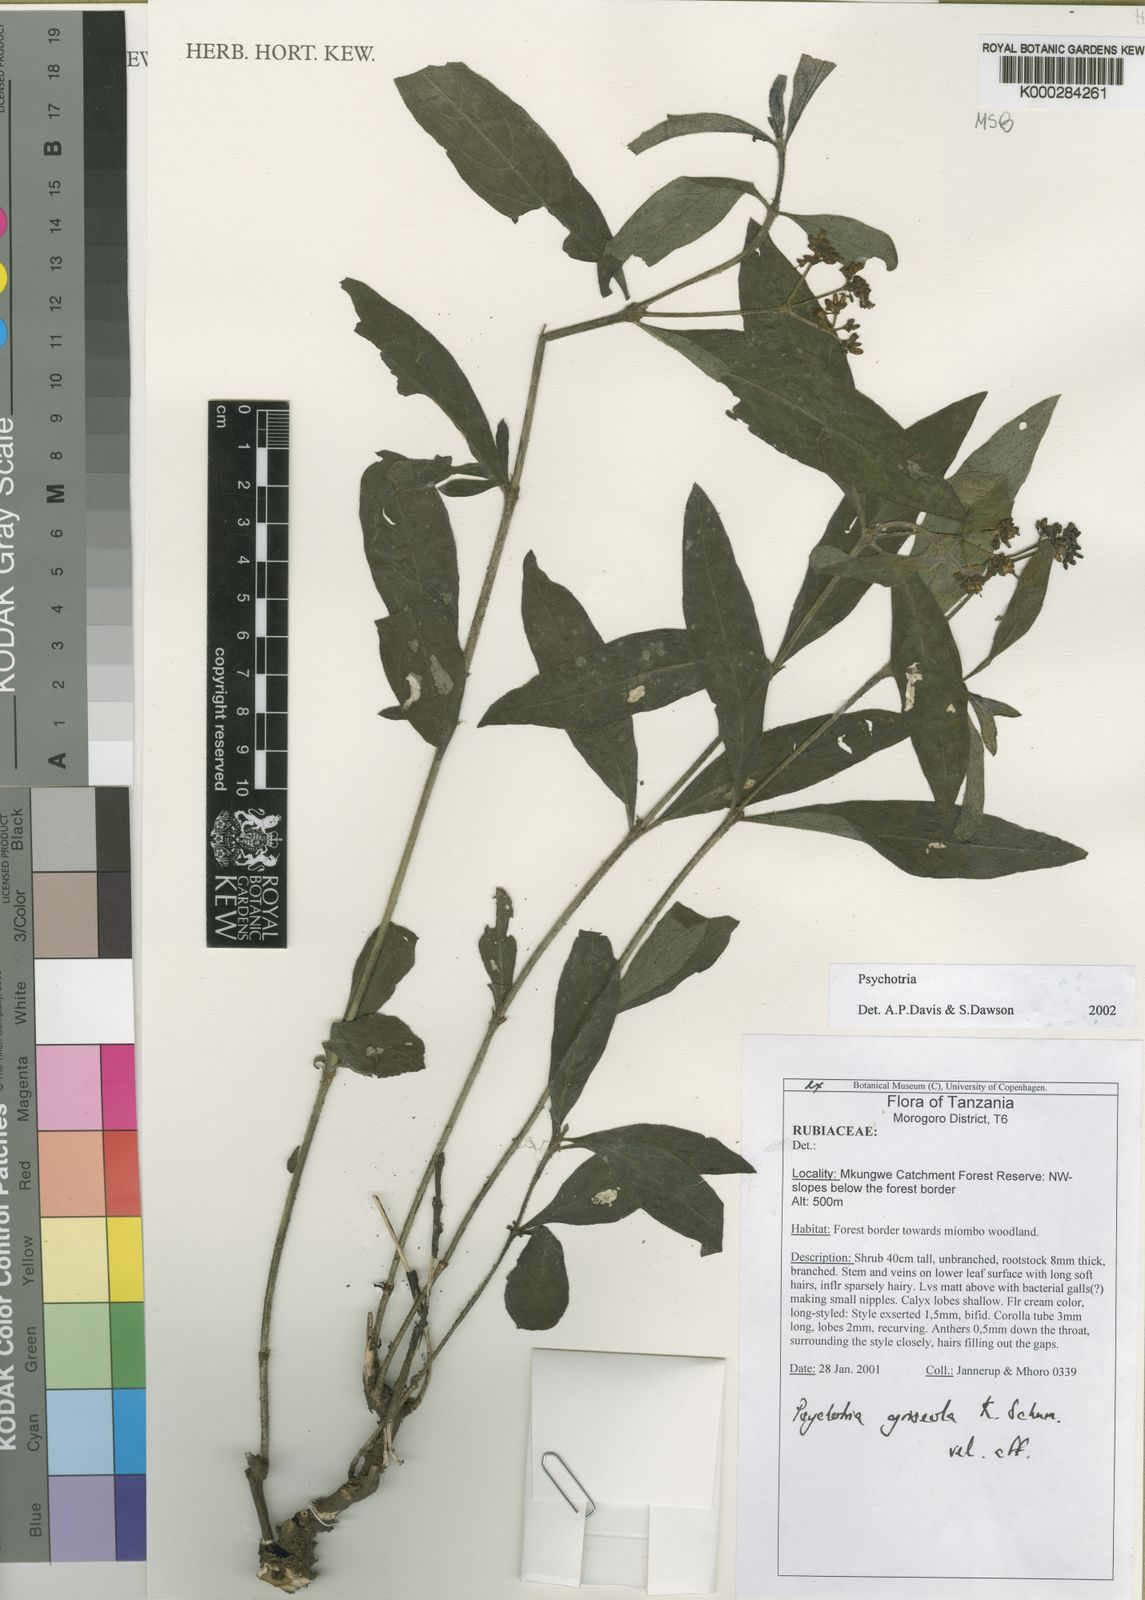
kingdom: Plantae
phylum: Tracheophyta
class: Magnoliopsida
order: Gentianales
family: Rubiaceae
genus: Psychotria
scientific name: Psychotria griseola
